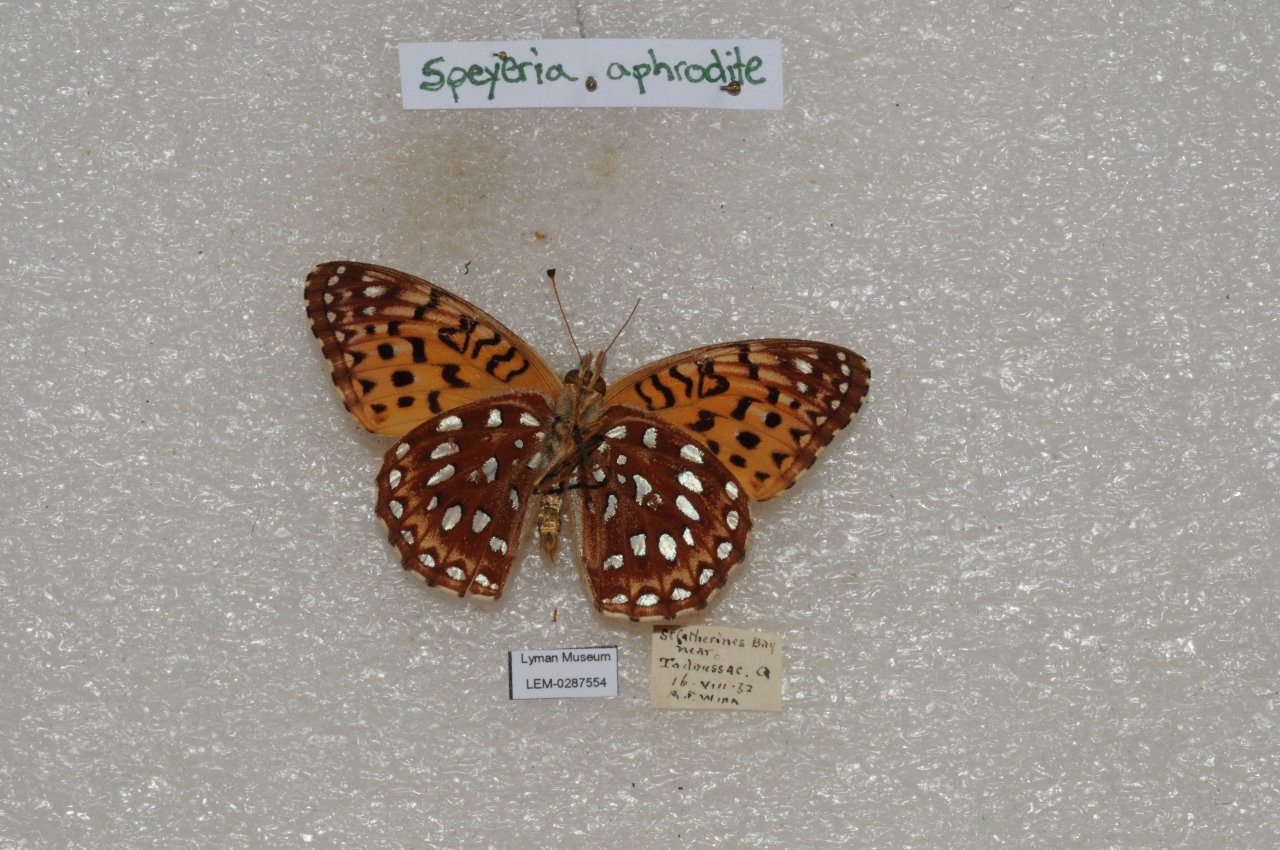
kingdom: Animalia
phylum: Arthropoda
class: Insecta
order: Lepidoptera
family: Nymphalidae
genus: Speyeria
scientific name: Speyeria aphrodite
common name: Aphrodite Fritillary
